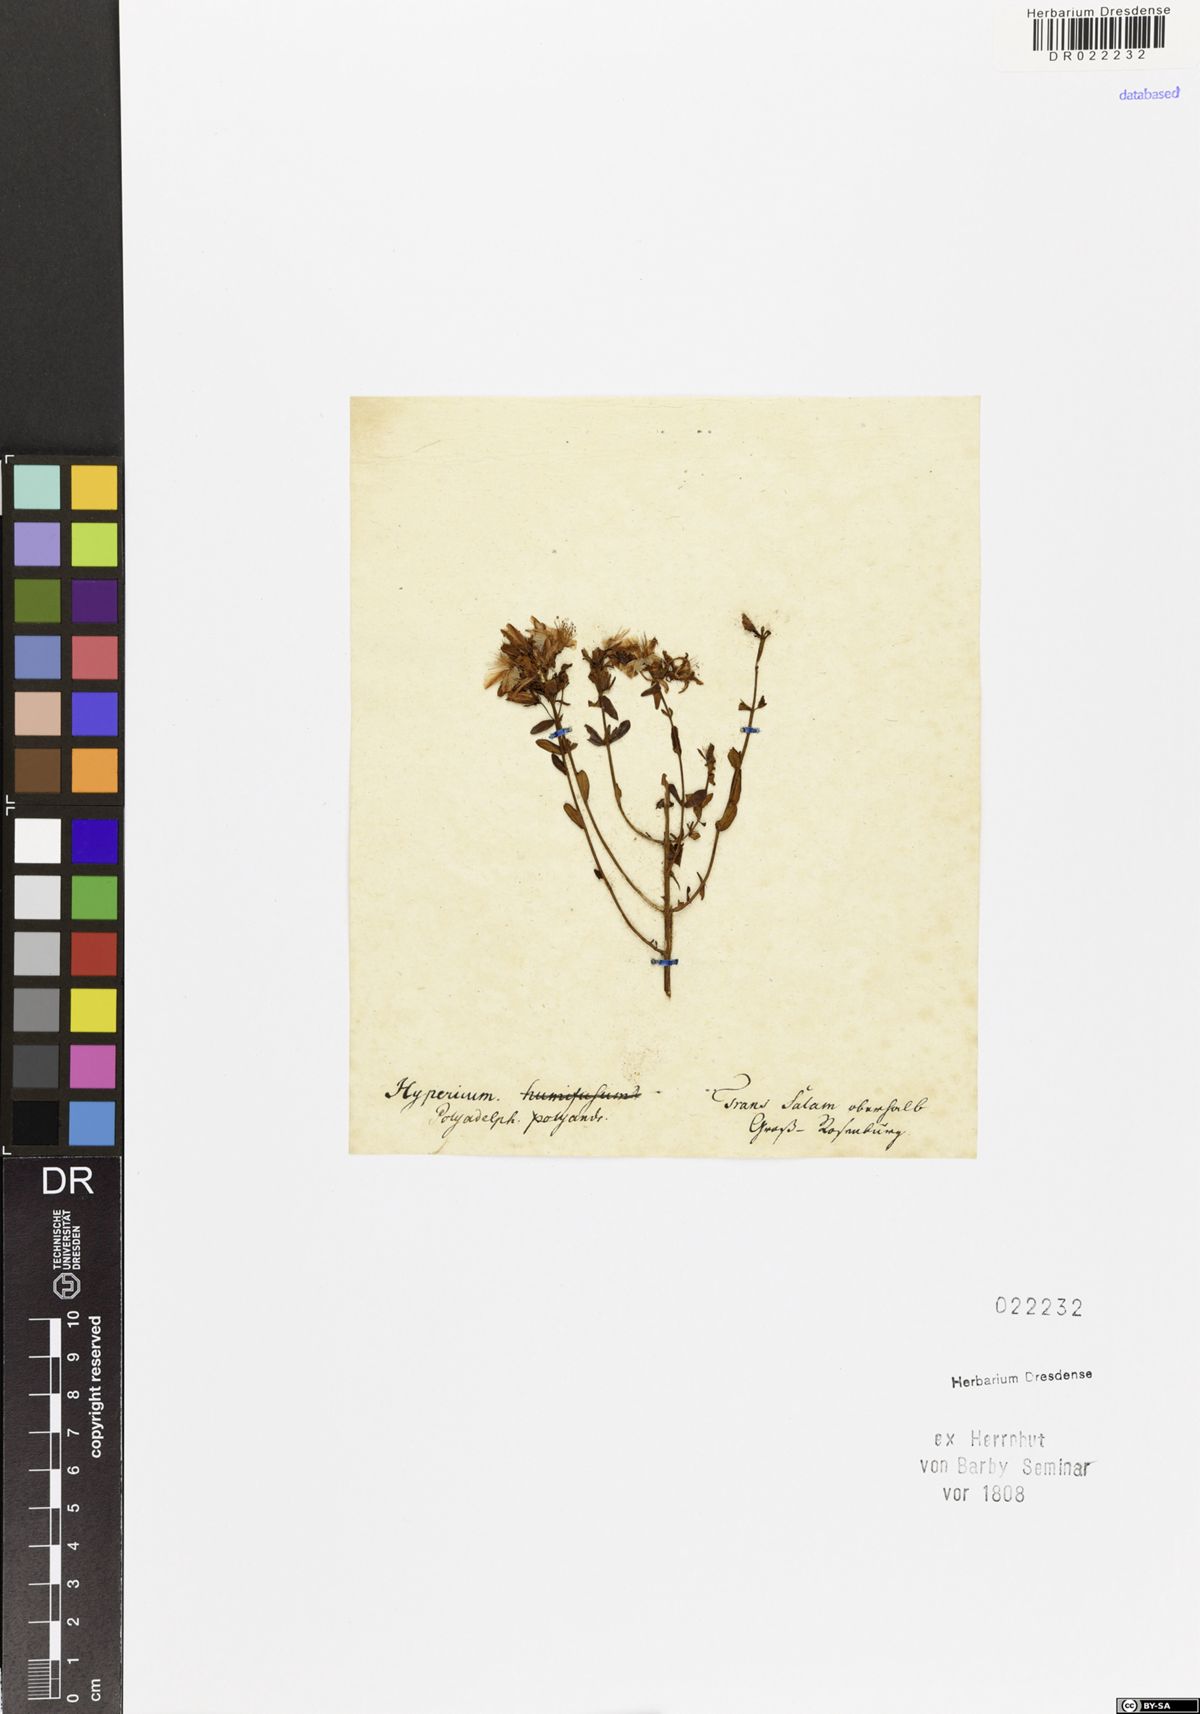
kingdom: Plantae
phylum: Tracheophyta
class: Magnoliopsida
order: Malpighiales
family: Hypericaceae
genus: Hypericum
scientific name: Hypericum perforatum
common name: Common st. johnswort
